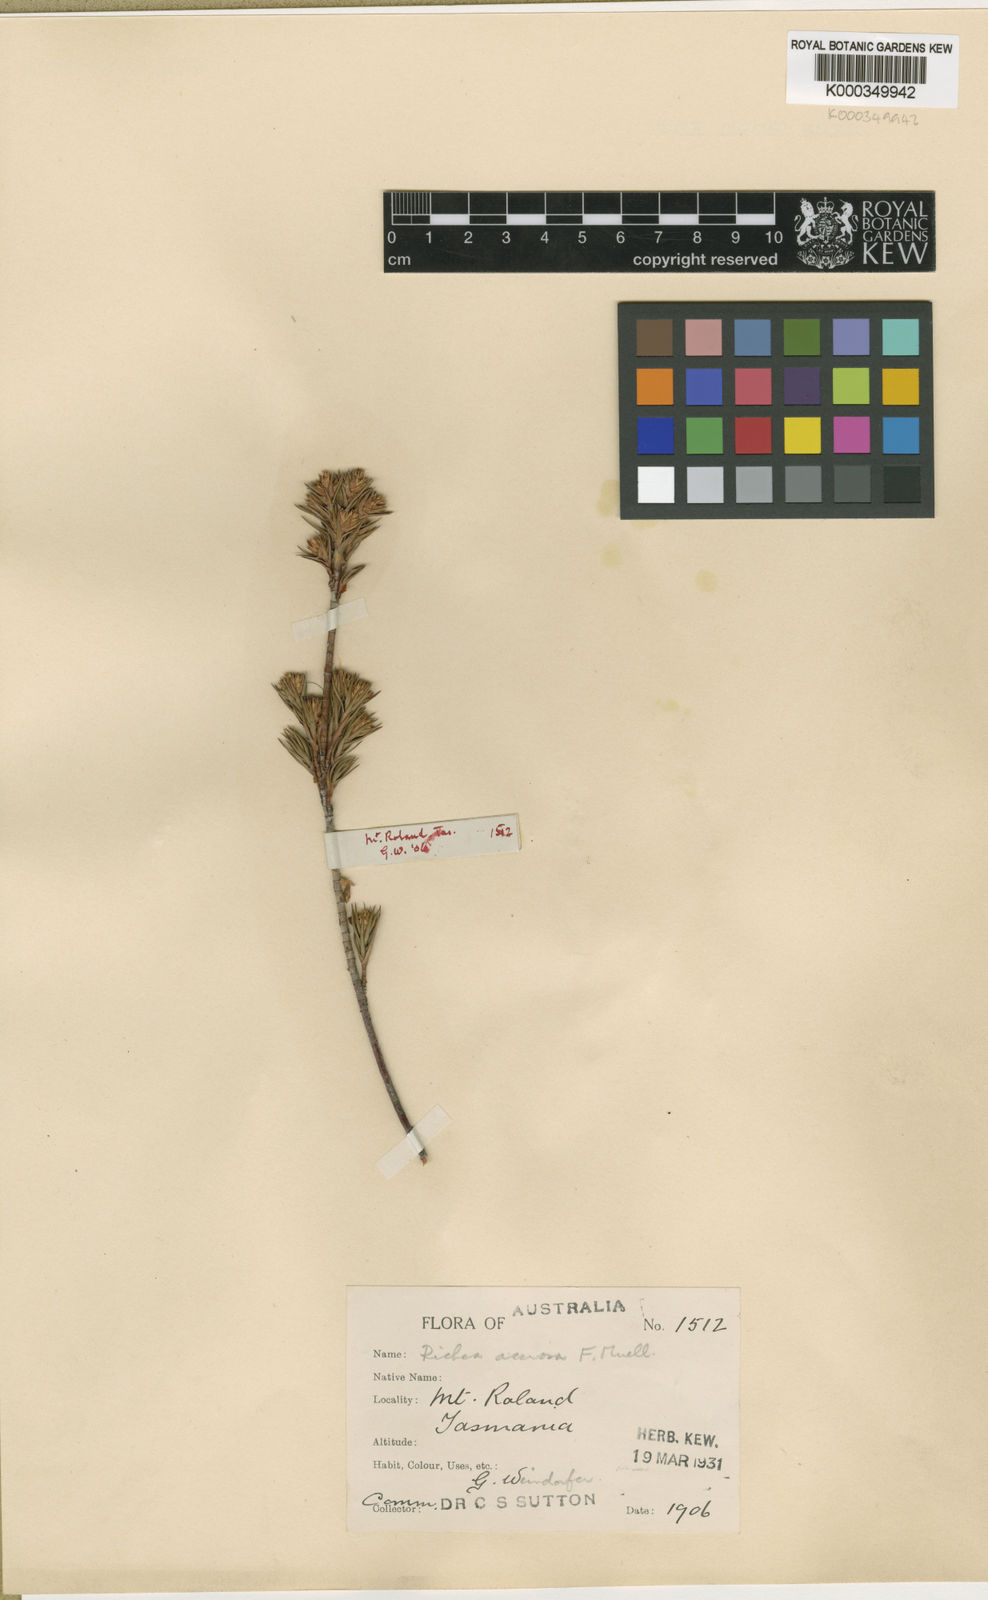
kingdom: Plantae
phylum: Tracheophyta
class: Magnoliopsida
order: Ericales
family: Ericaceae
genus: Dracophyllum
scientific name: Dracophyllum laciniatum
